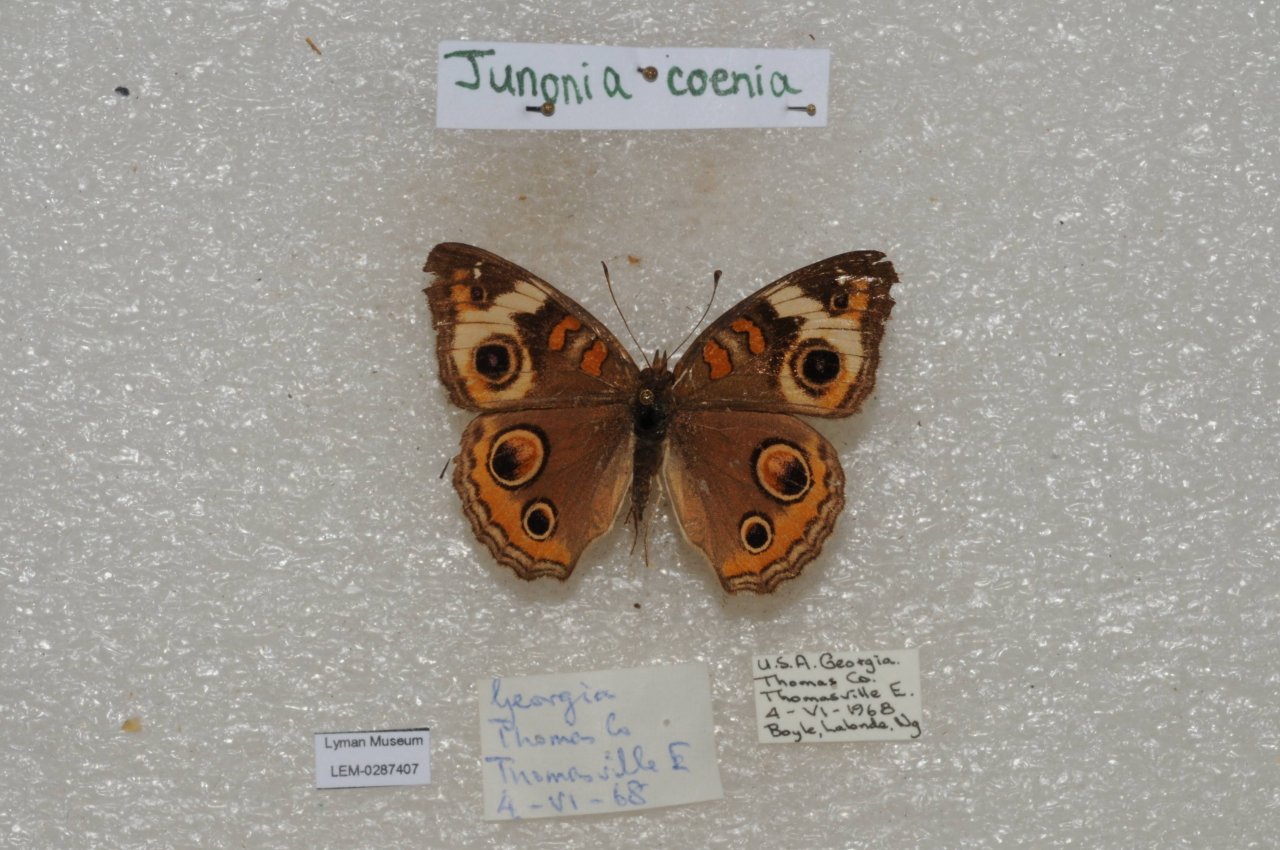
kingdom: Animalia
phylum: Arthropoda
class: Insecta
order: Lepidoptera
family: Nymphalidae
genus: Junonia
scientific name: Junonia coenia
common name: Common Buckeye
